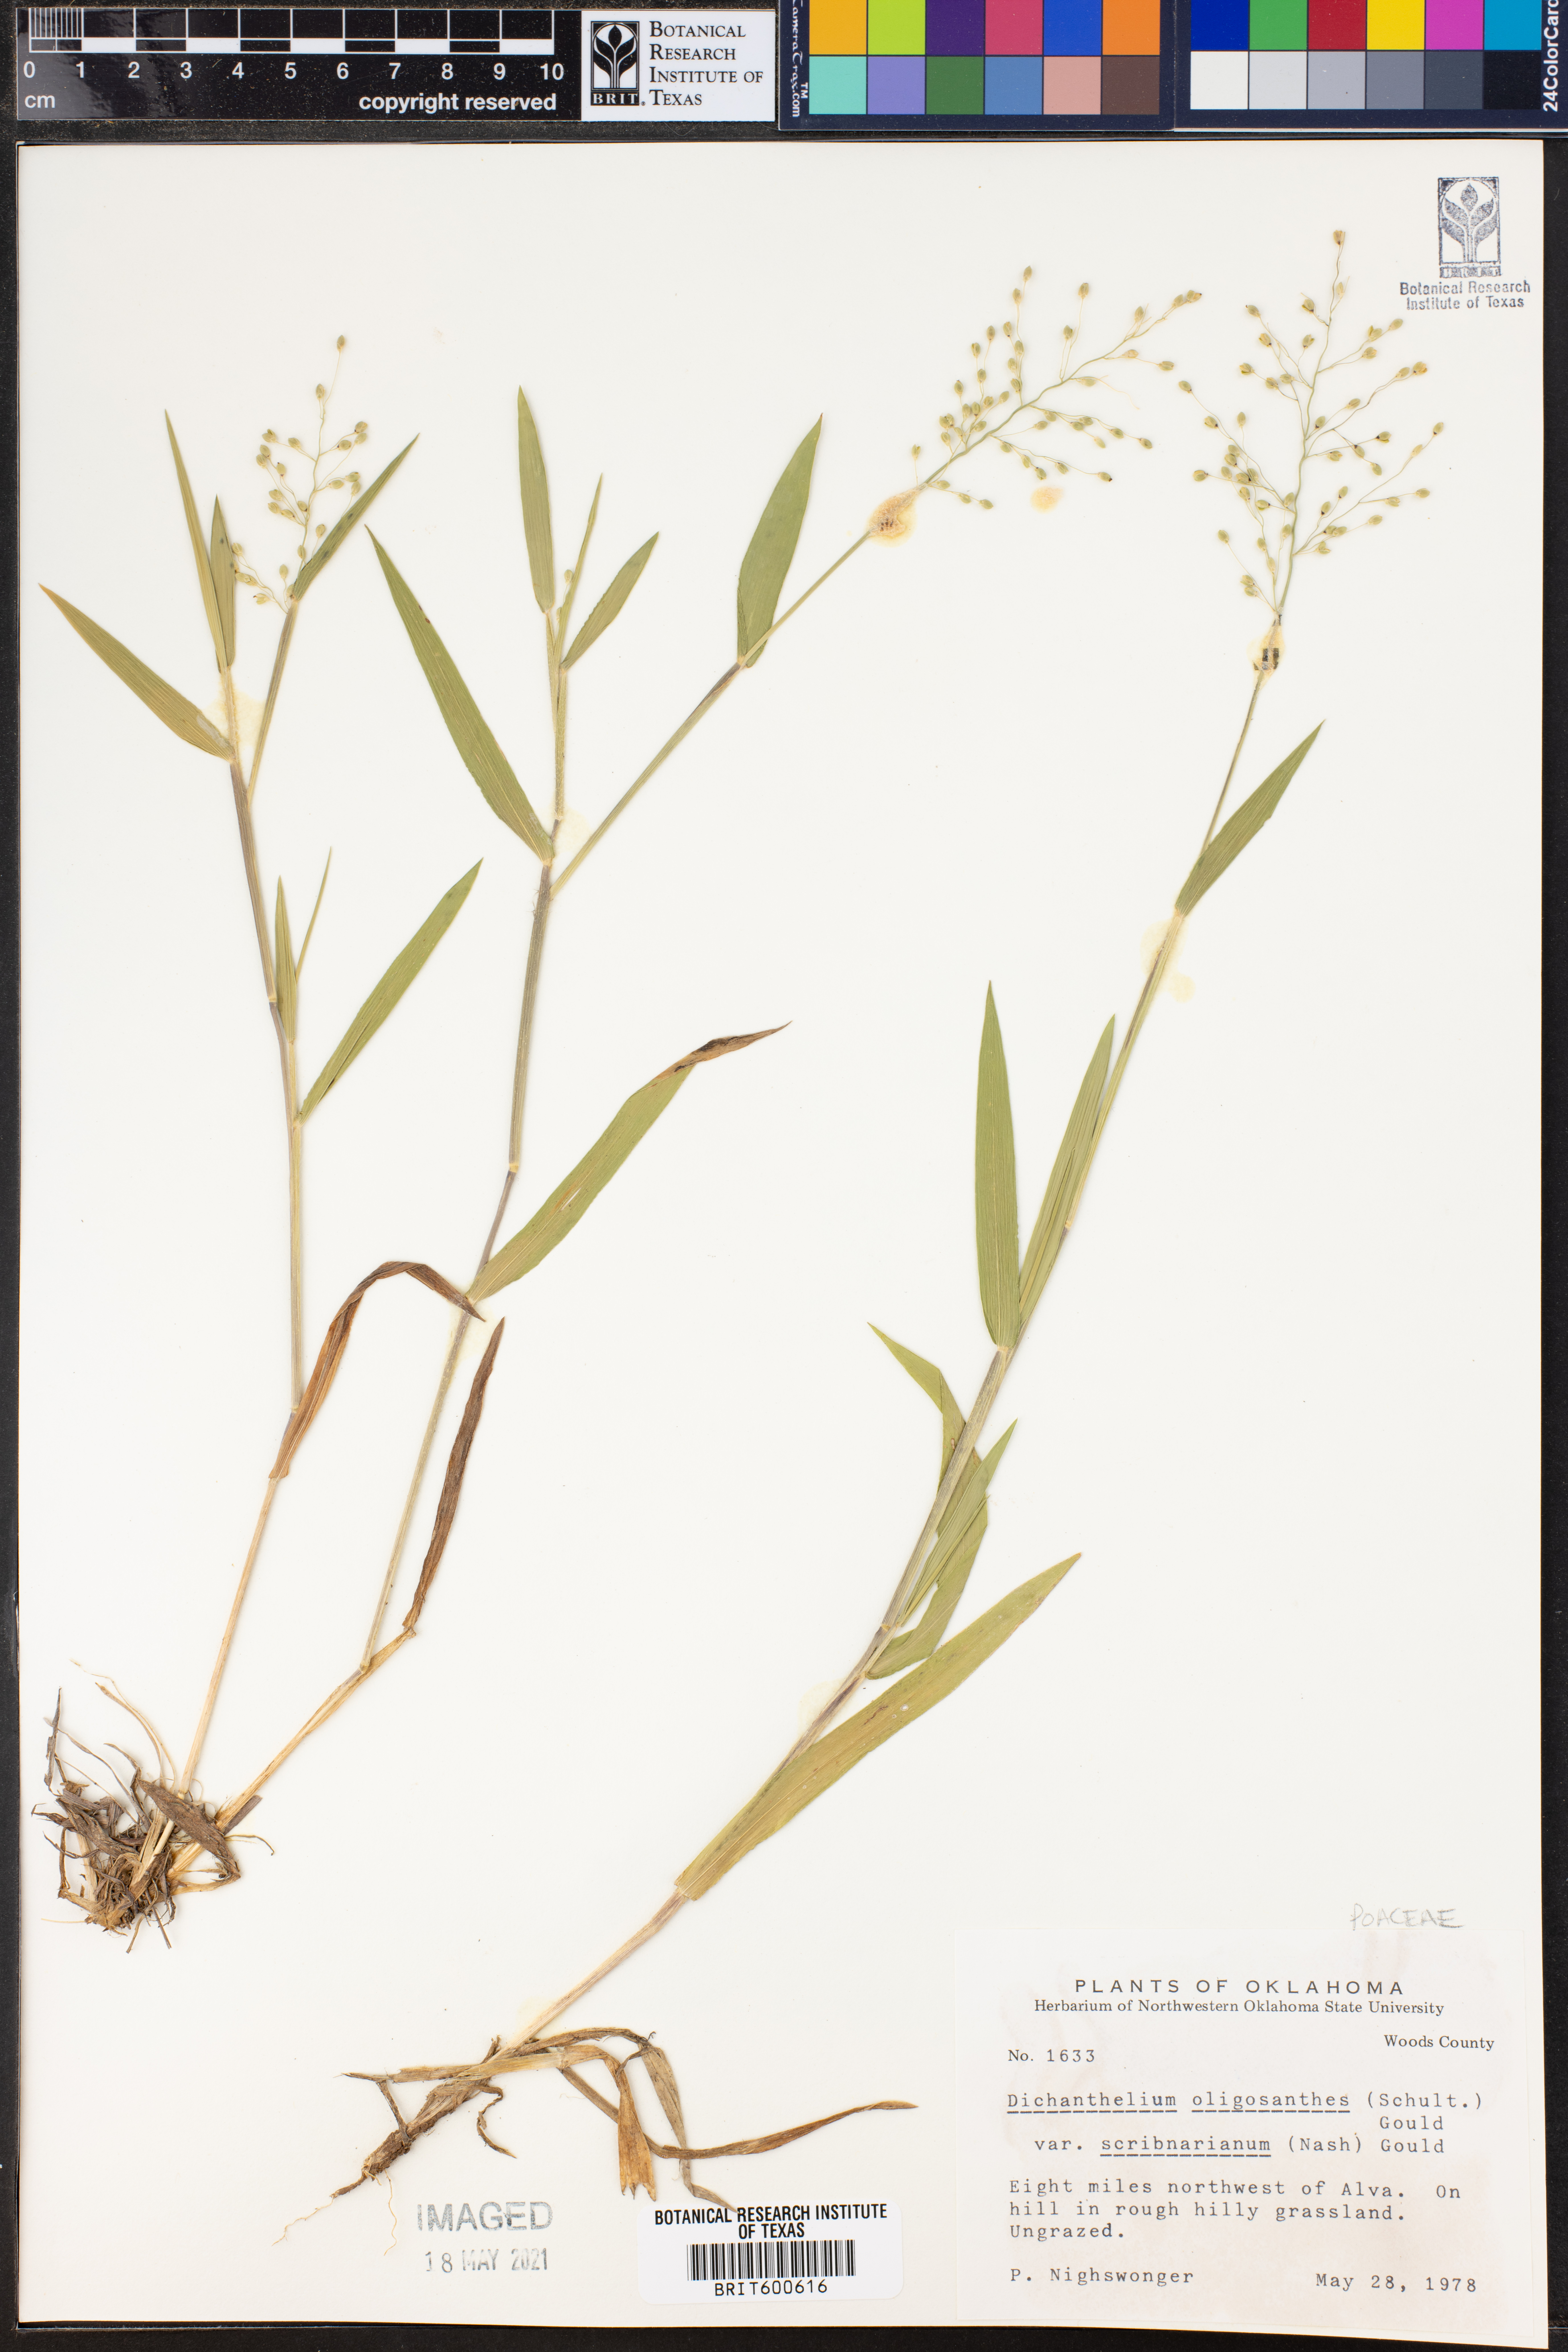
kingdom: Plantae
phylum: Tracheophyta
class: Liliopsida
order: Poales
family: Poaceae
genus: Dichanthelium
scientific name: Dichanthelium scribnerianum
